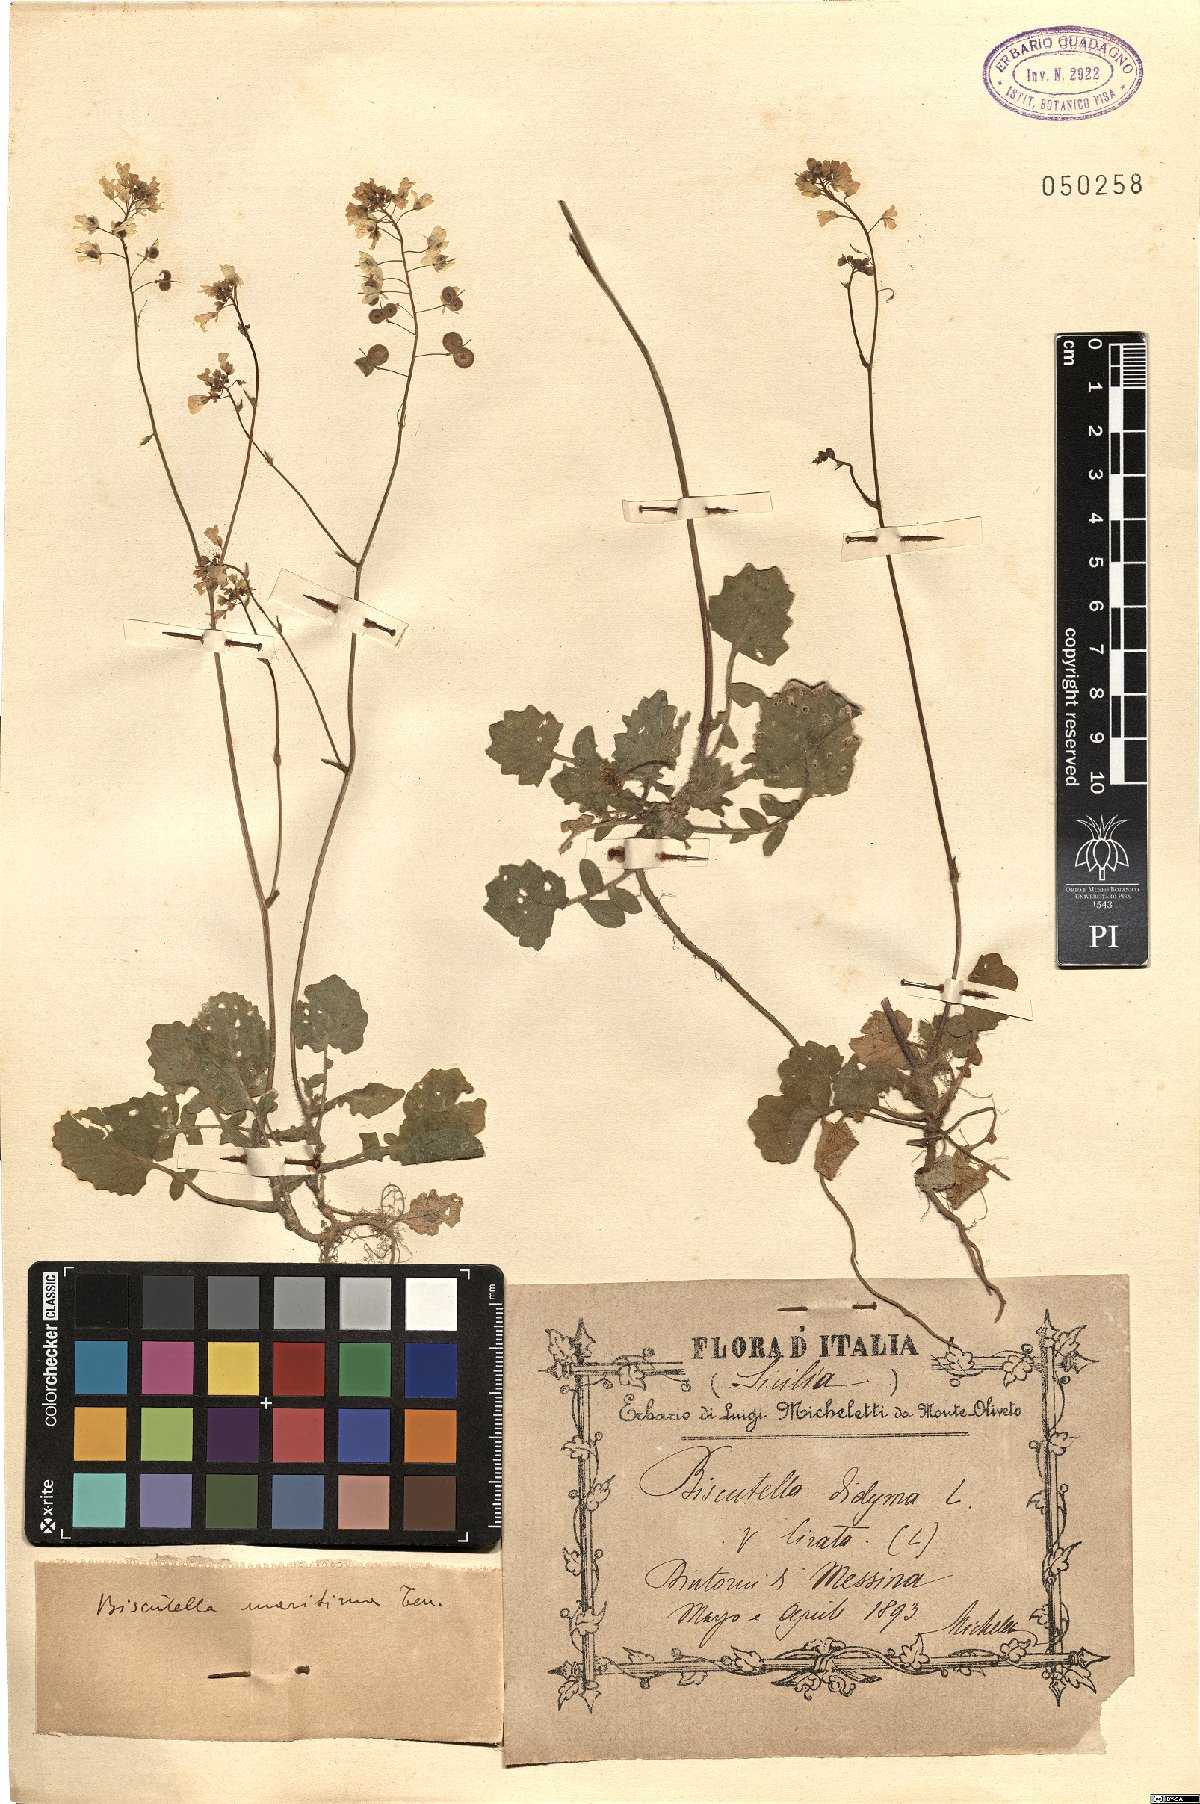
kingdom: Plantae
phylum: Tracheophyta
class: Magnoliopsida
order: Brassicales
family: Brassicaceae
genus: Biscutella
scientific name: Biscutella maritima
